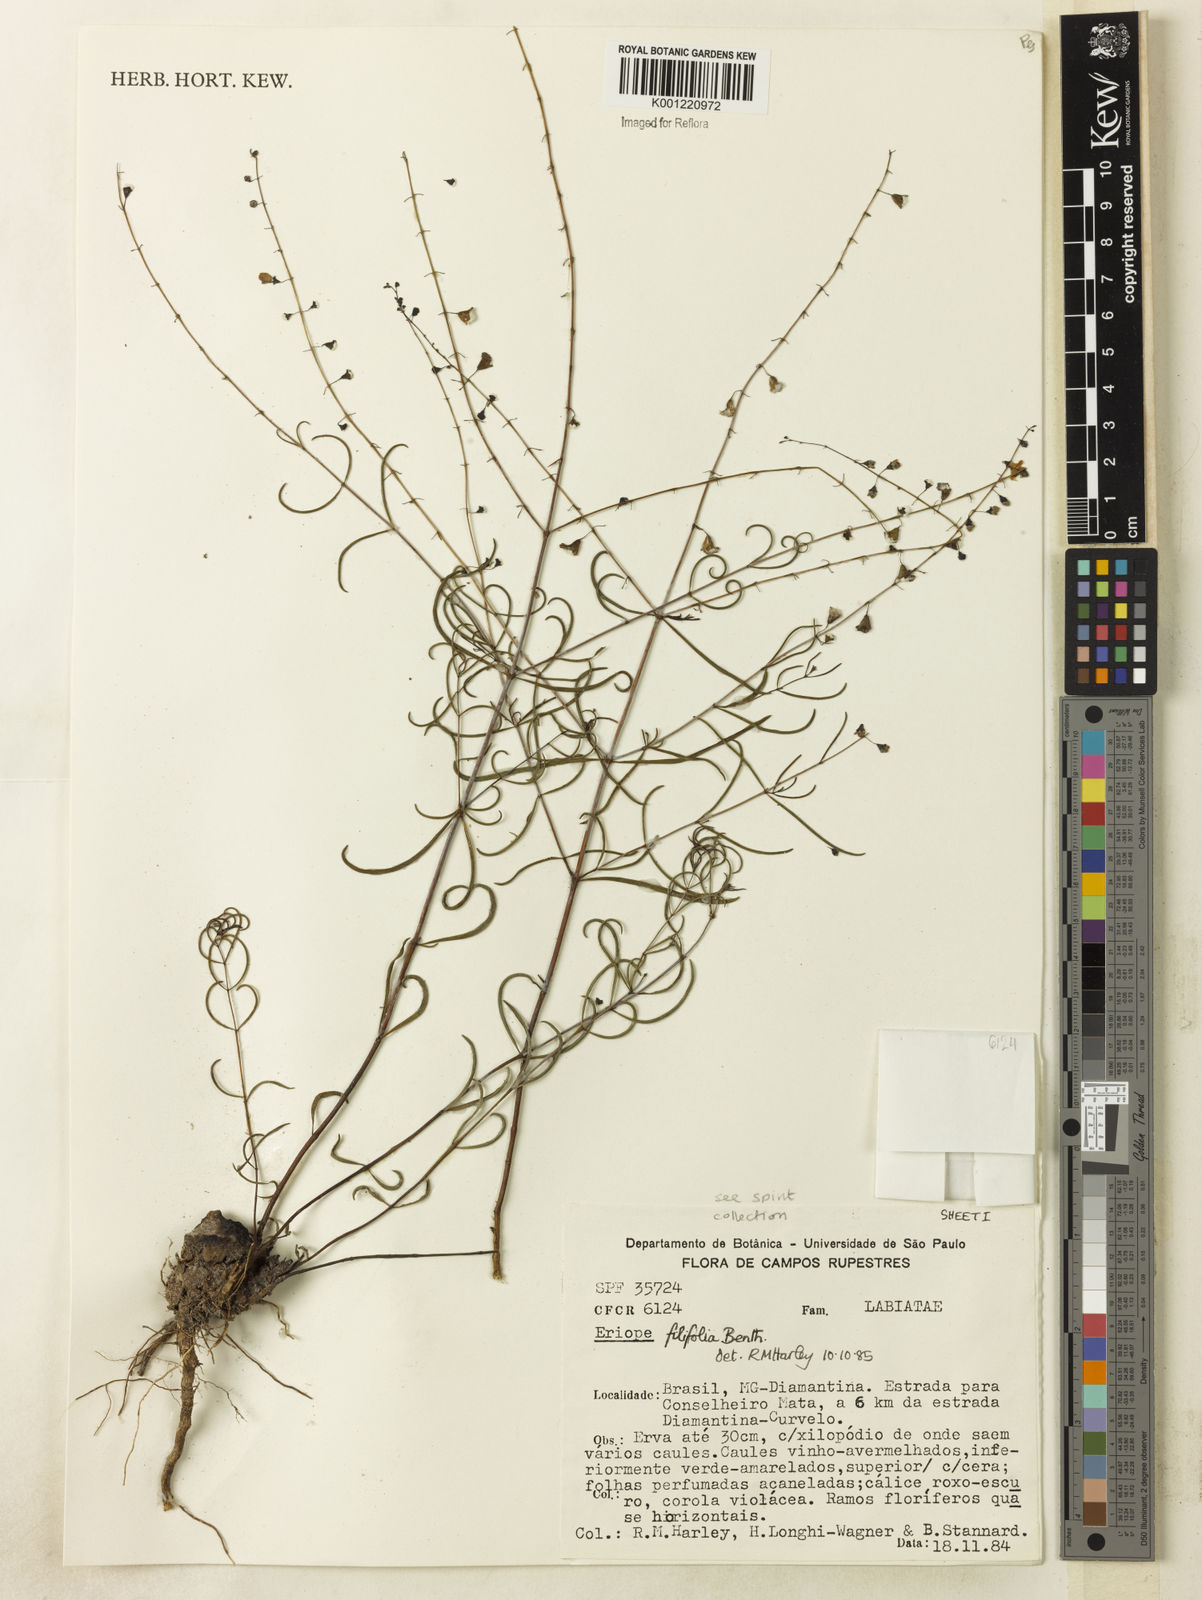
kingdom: Plantae
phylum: Tracheophyta
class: Magnoliopsida
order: Lamiales
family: Lamiaceae
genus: Eriope
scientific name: Eriope filifolia
